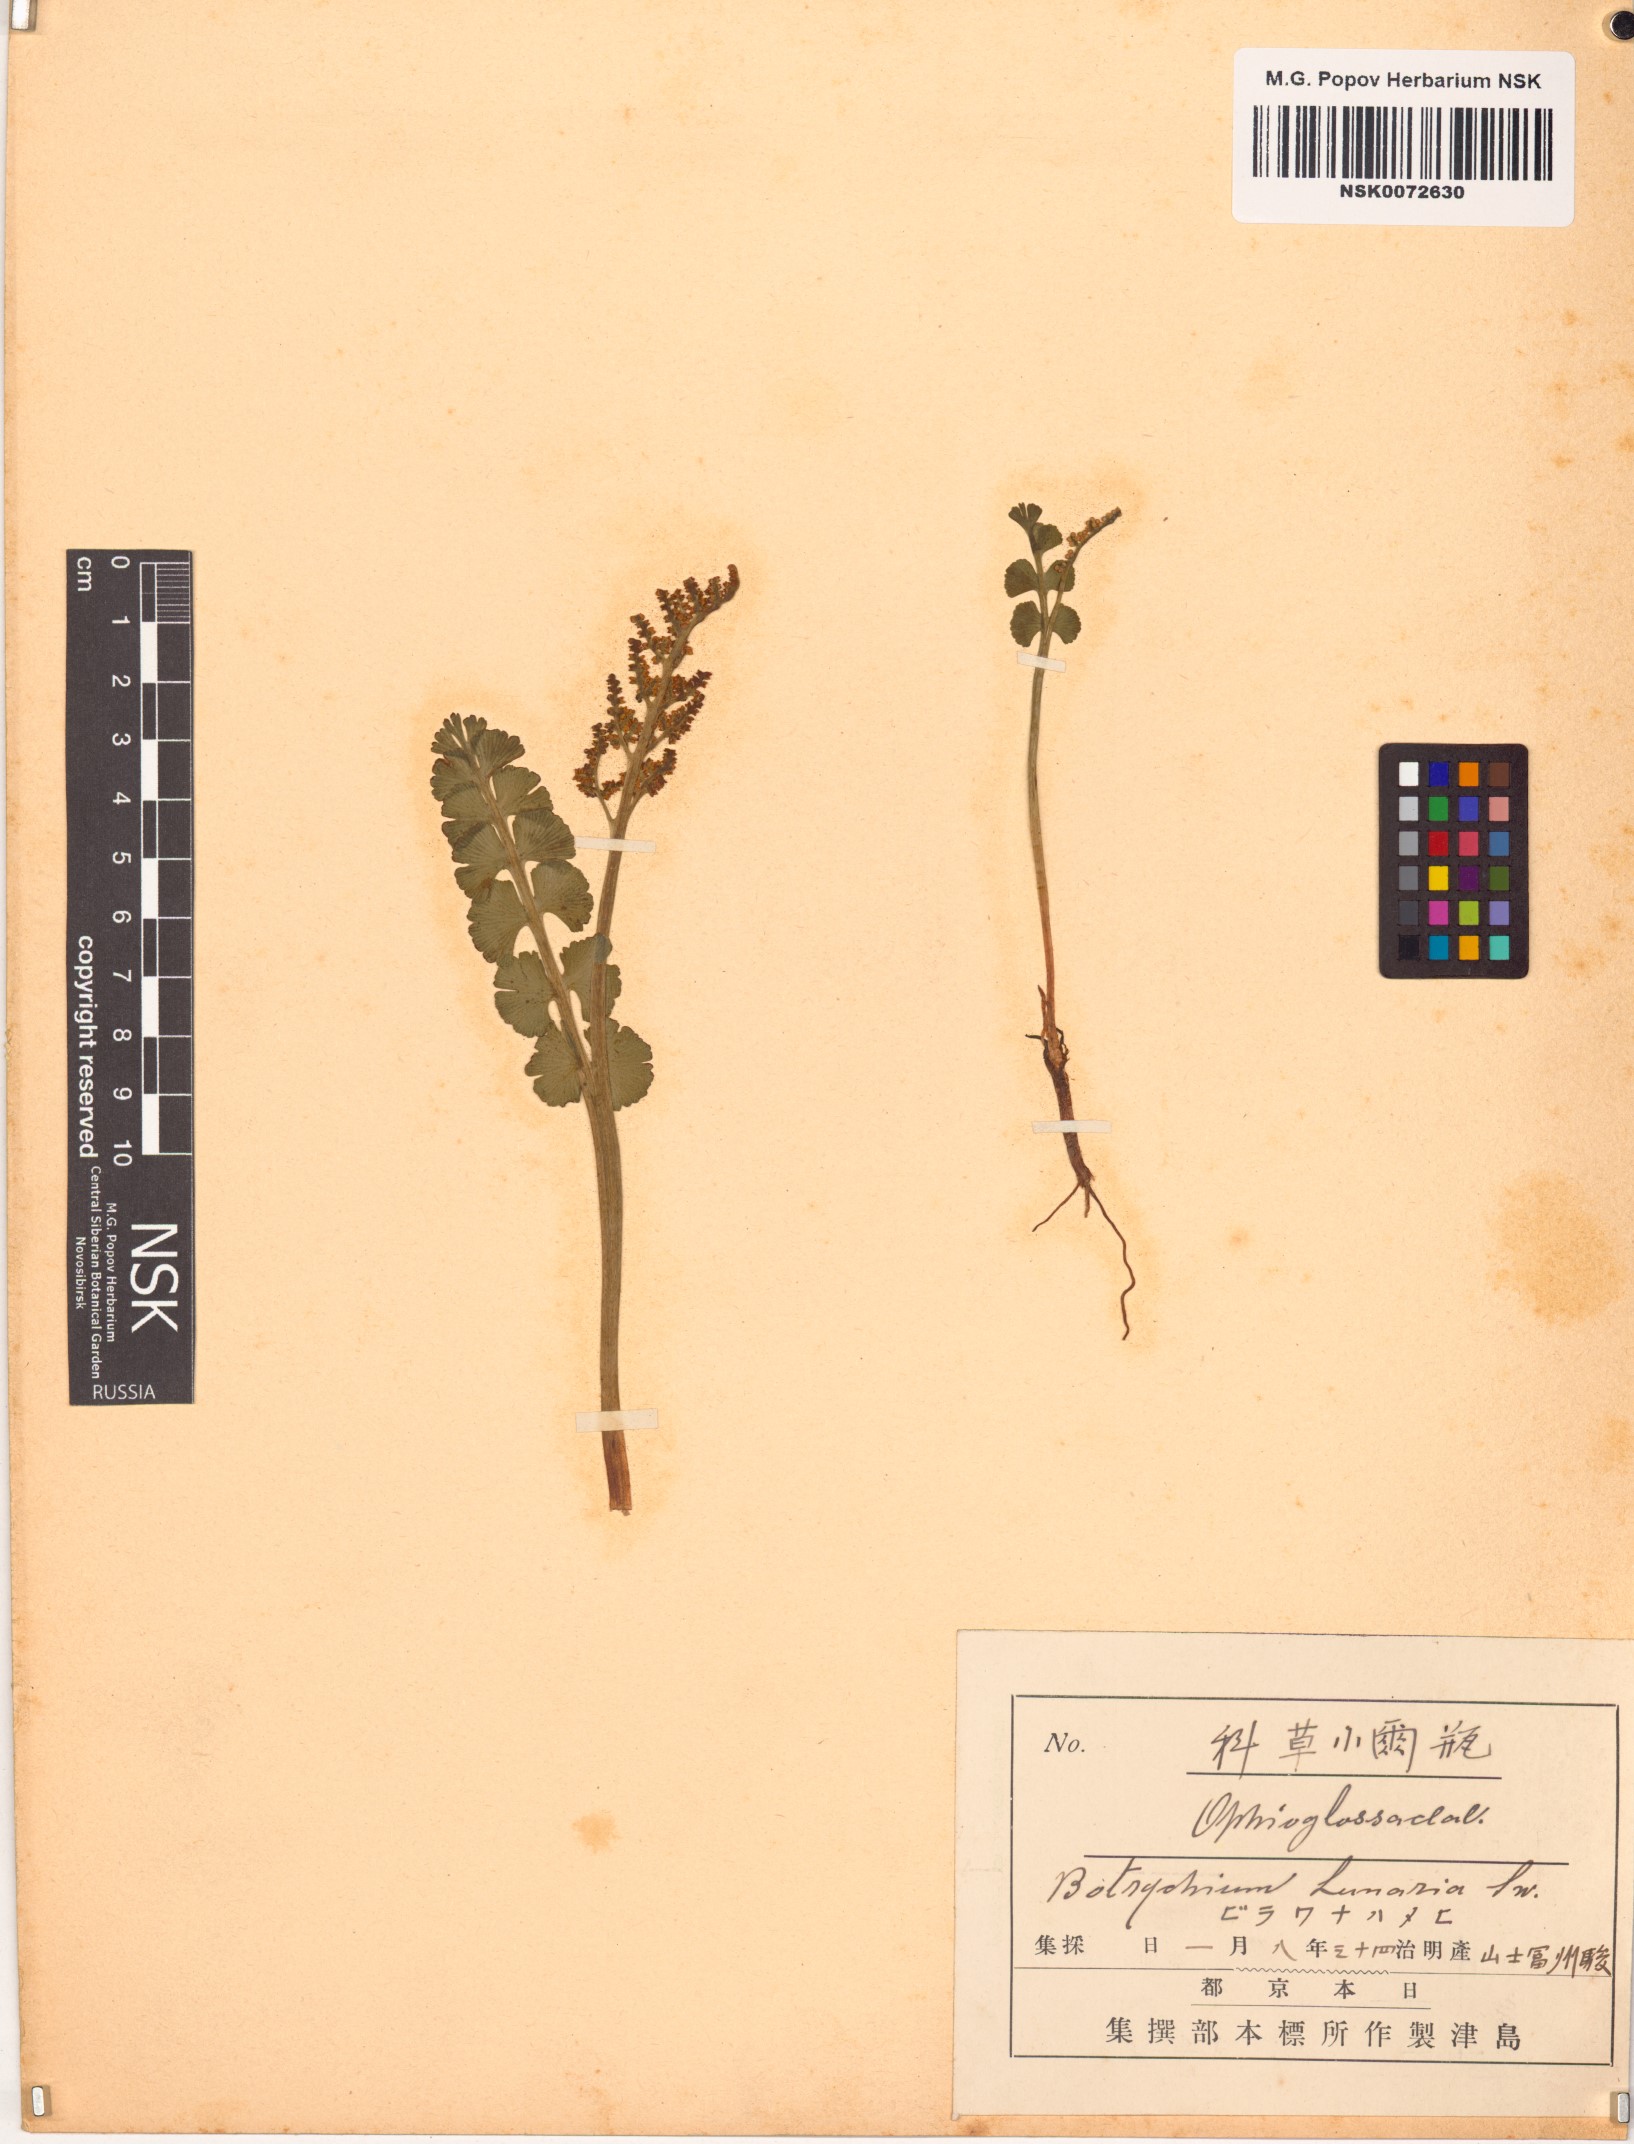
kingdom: Plantae
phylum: Tracheophyta
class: Polypodiopsida
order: Ophioglossales
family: Ophioglossaceae
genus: Botrychium
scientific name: Botrychium lunaria
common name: Moonwort
